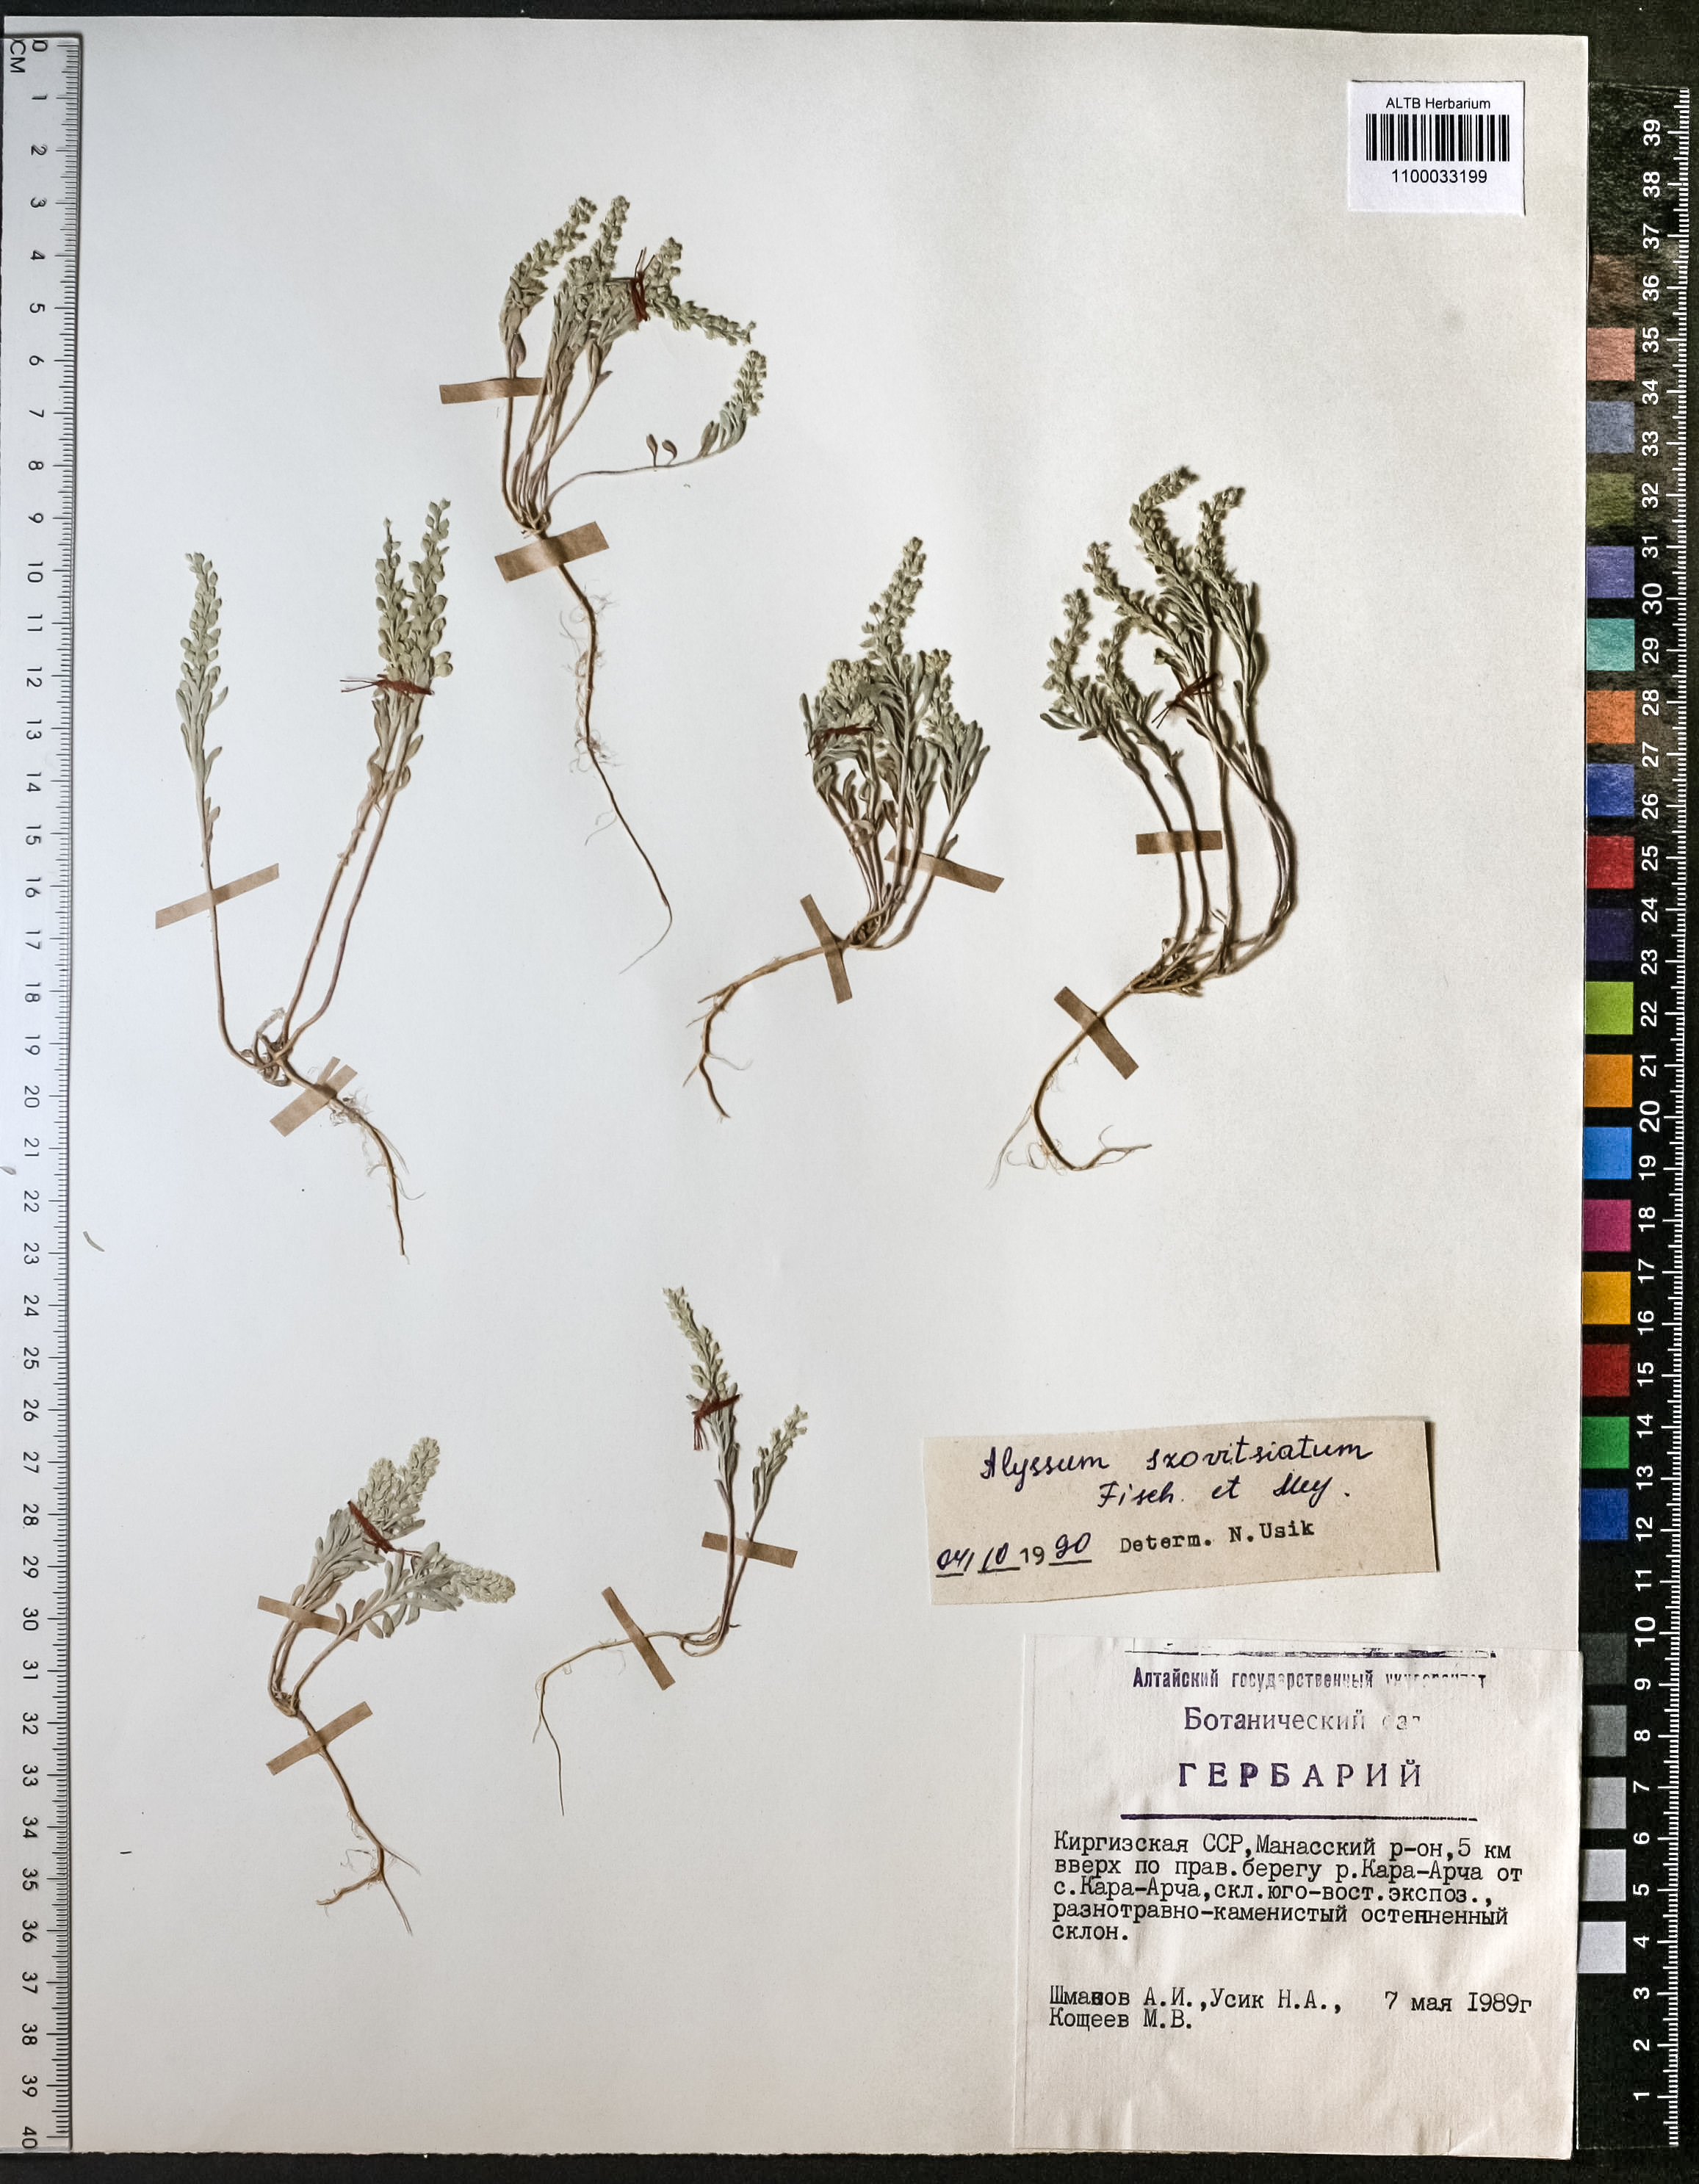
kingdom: Plantae
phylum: Tracheophyta
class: Magnoliopsida
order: Brassicales
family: Brassicaceae
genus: Alyssum
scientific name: Alyssum szovitsianum
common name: Szowits' madwort
